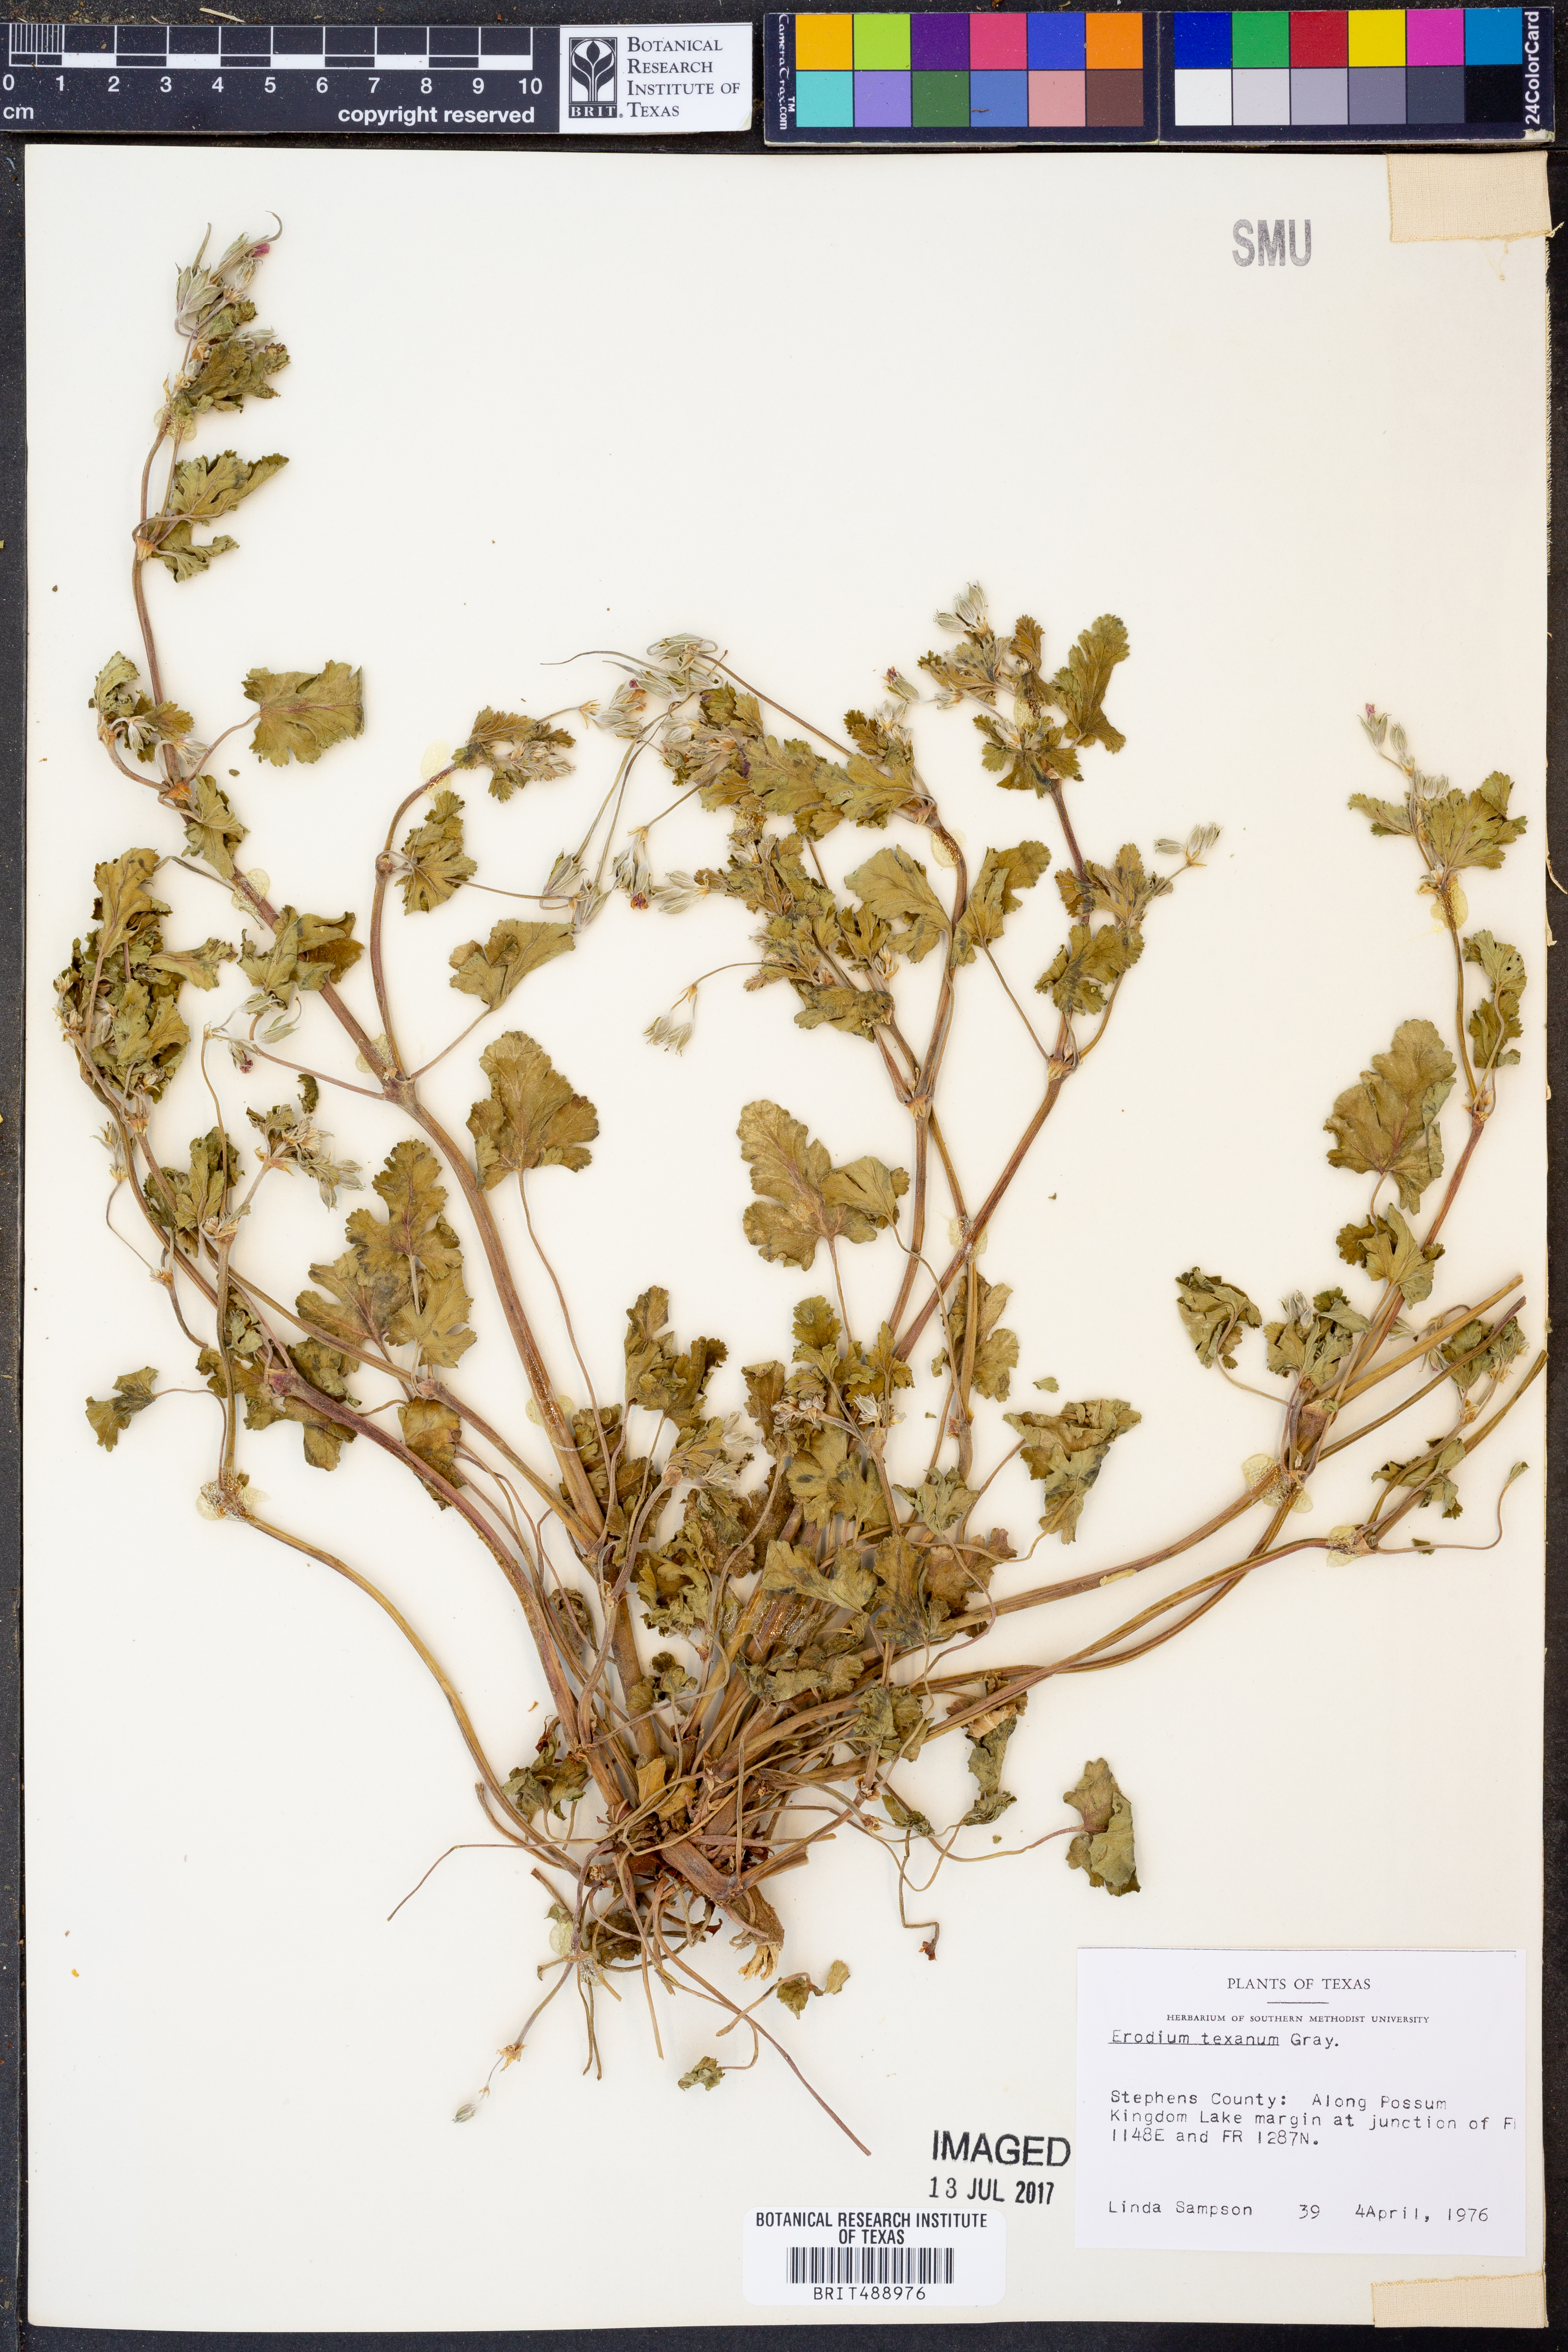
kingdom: Plantae
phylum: Tracheophyta
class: Magnoliopsida
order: Geraniales
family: Geraniaceae
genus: Erodium
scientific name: Erodium texanum
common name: Texas stork's-bill
